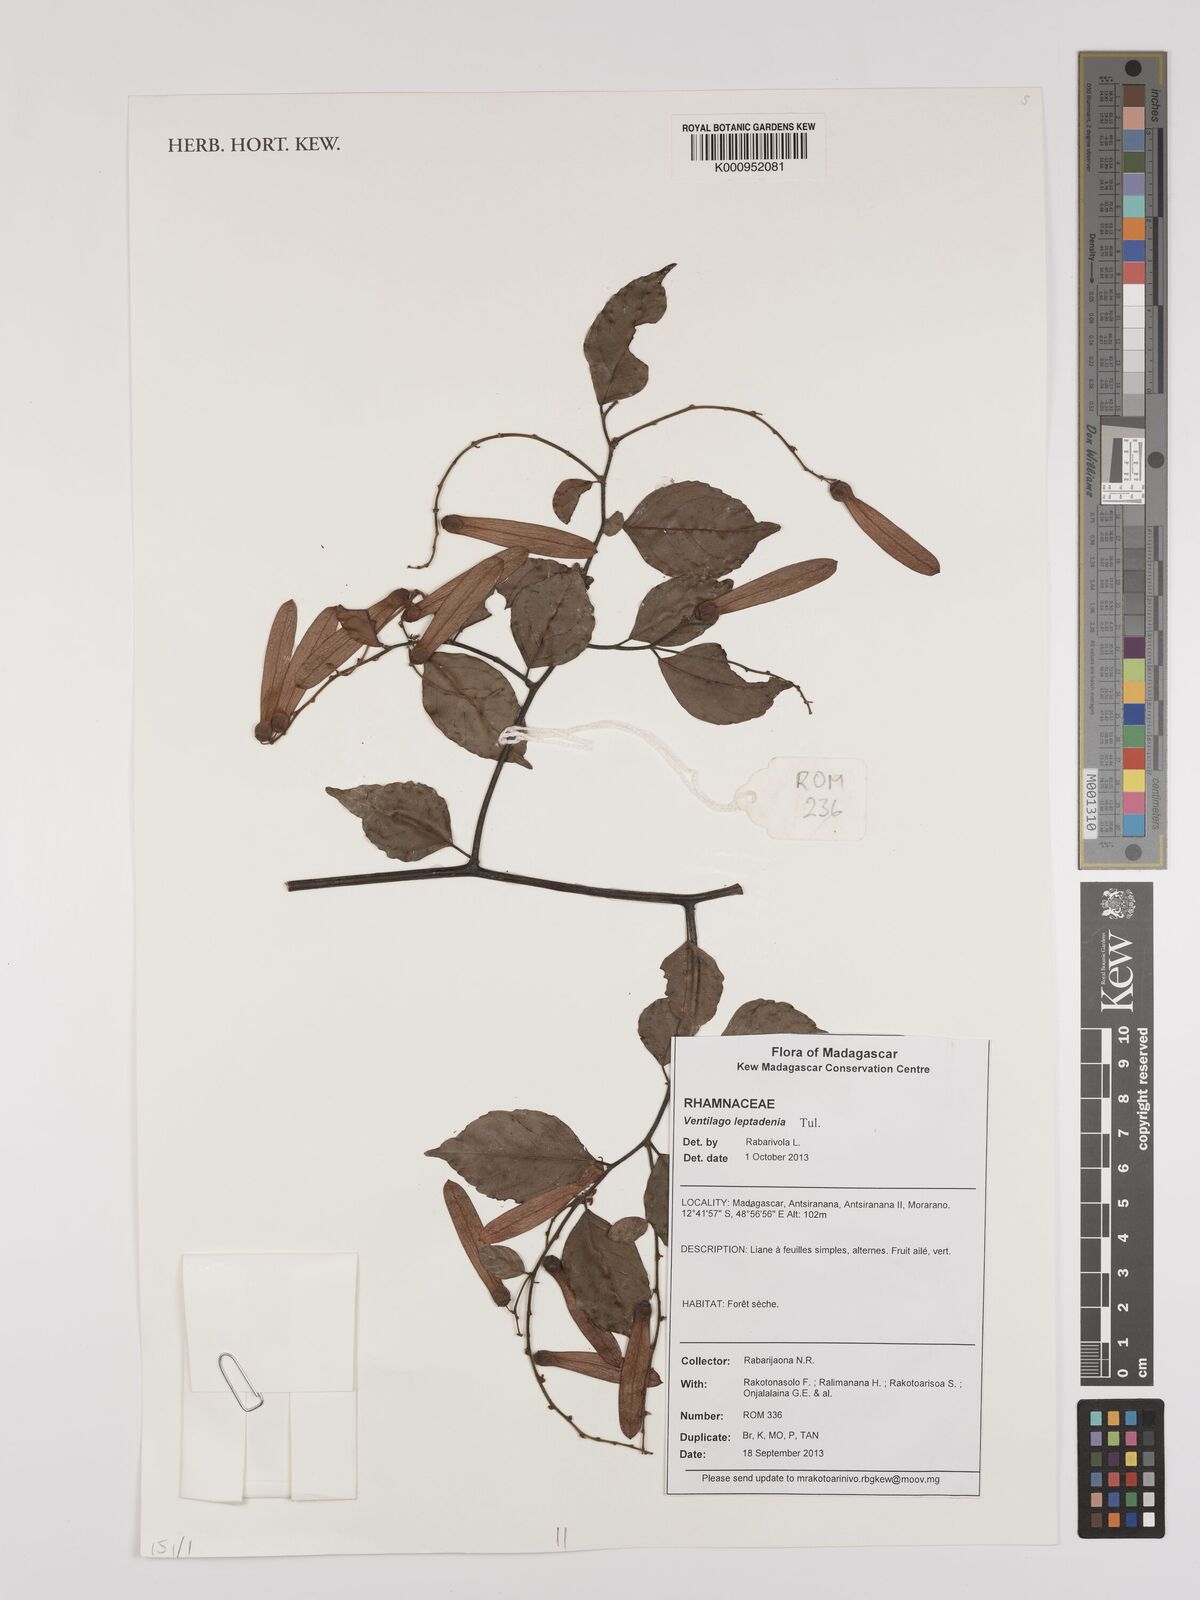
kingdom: Plantae
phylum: Tracheophyta
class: Magnoliopsida
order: Rosales
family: Rhamnaceae
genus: Ventilago
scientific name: Ventilago leptadenia
